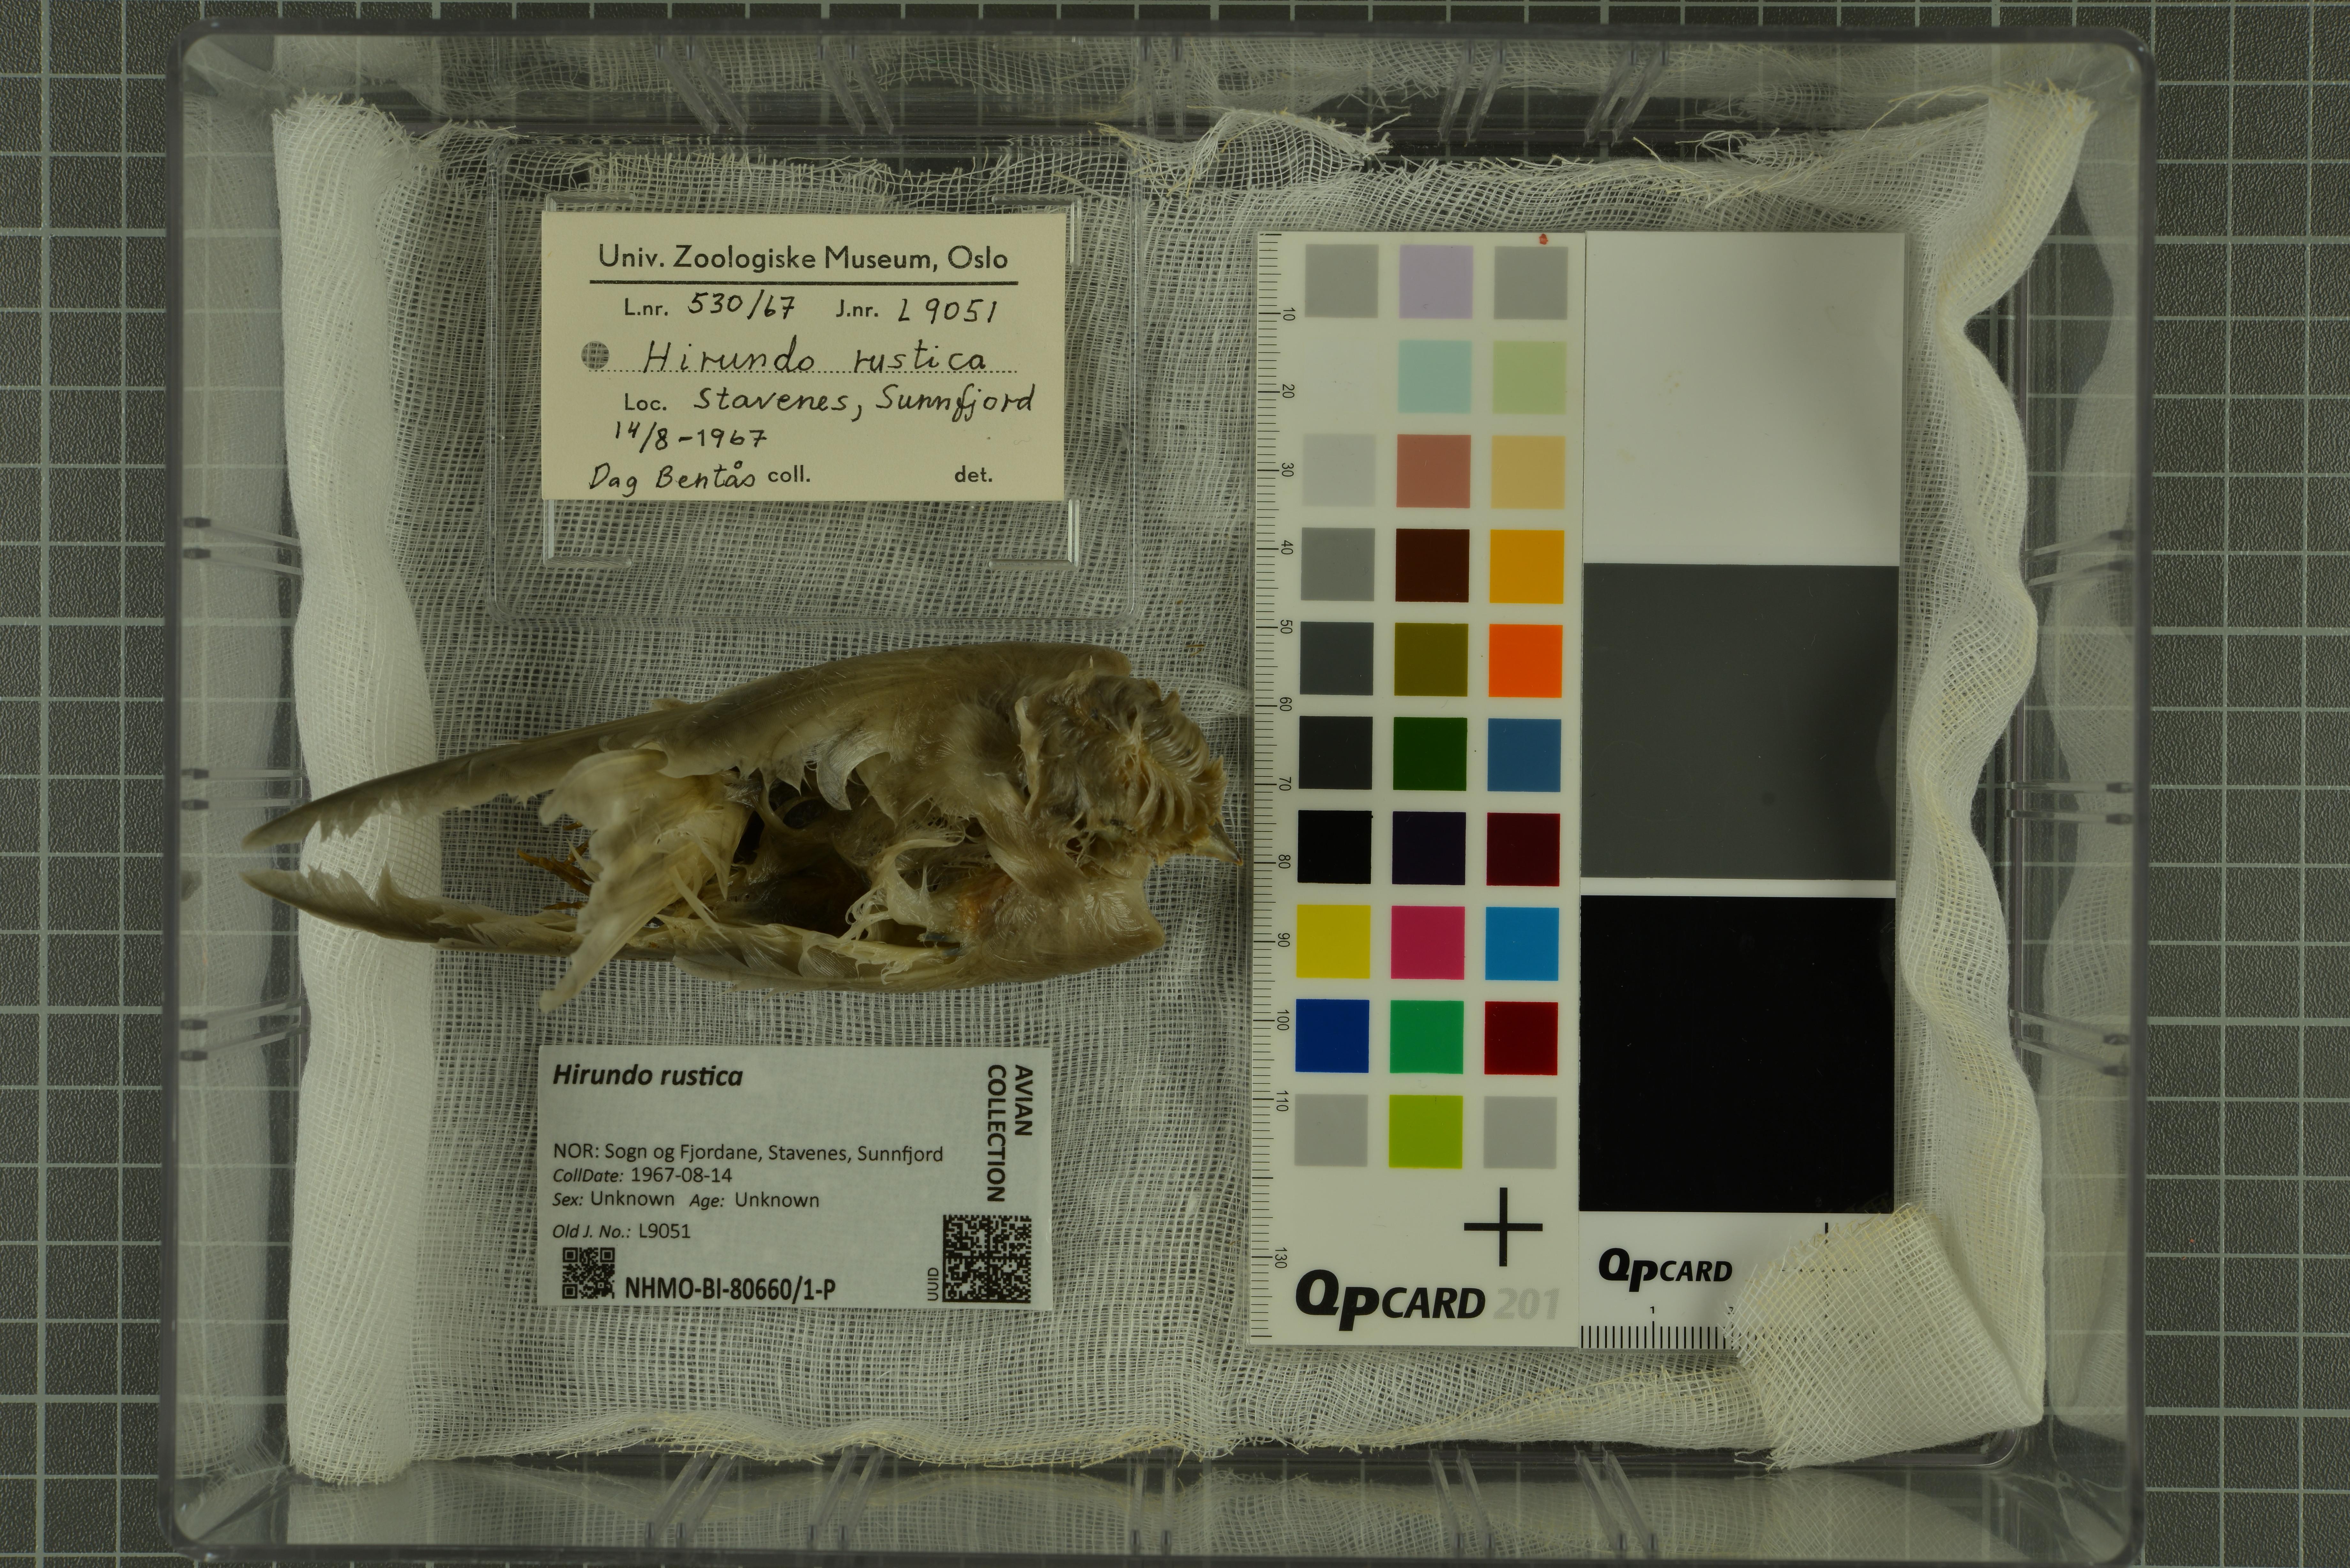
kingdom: Animalia
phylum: Chordata
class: Aves
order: Passeriformes
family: Hirundinidae
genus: Hirundo
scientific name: Hirundo rustica
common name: Barn swallow
